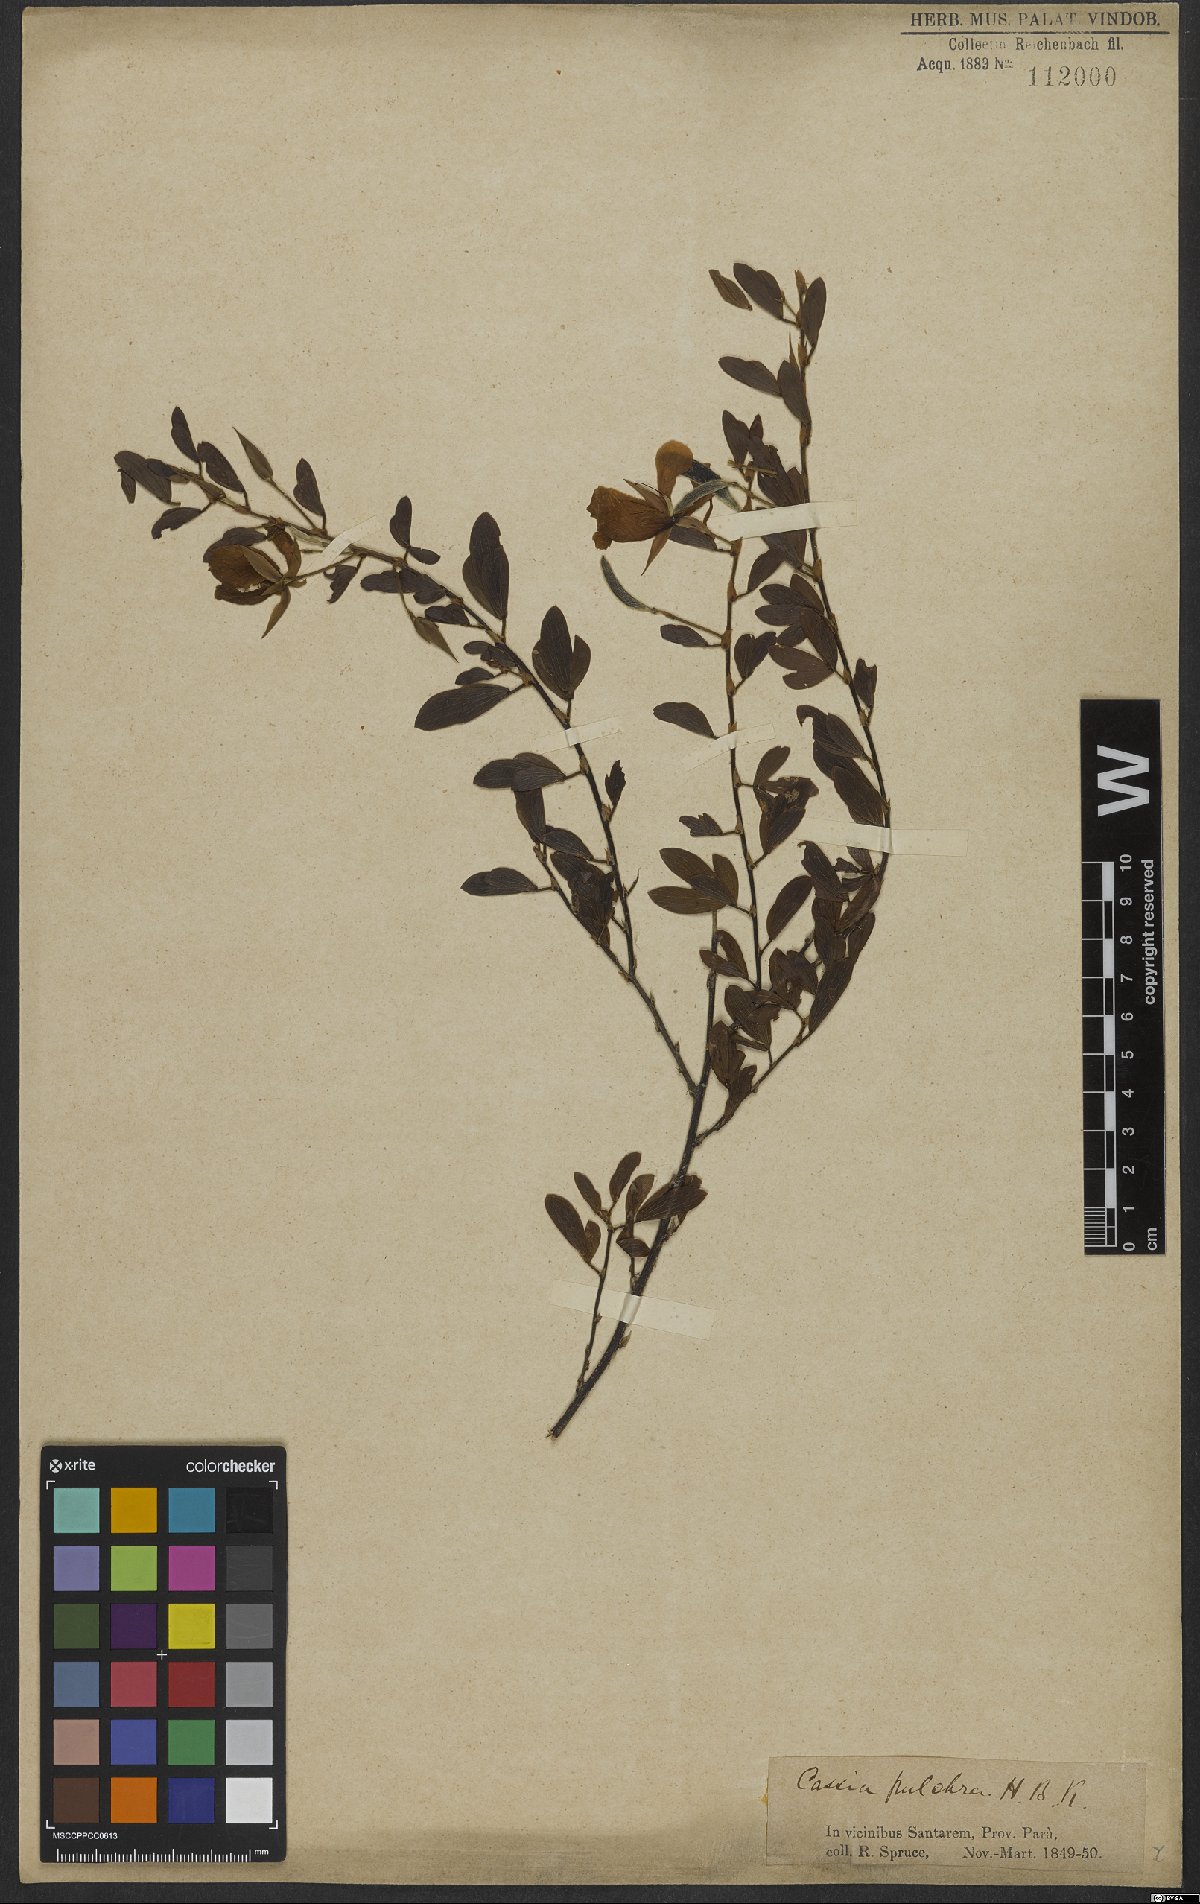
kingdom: Plantae
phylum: Tracheophyta
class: Magnoliopsida
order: Fabales
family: Fabaceae
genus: Chamaecrista
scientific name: Chamaecrista desvauxii
